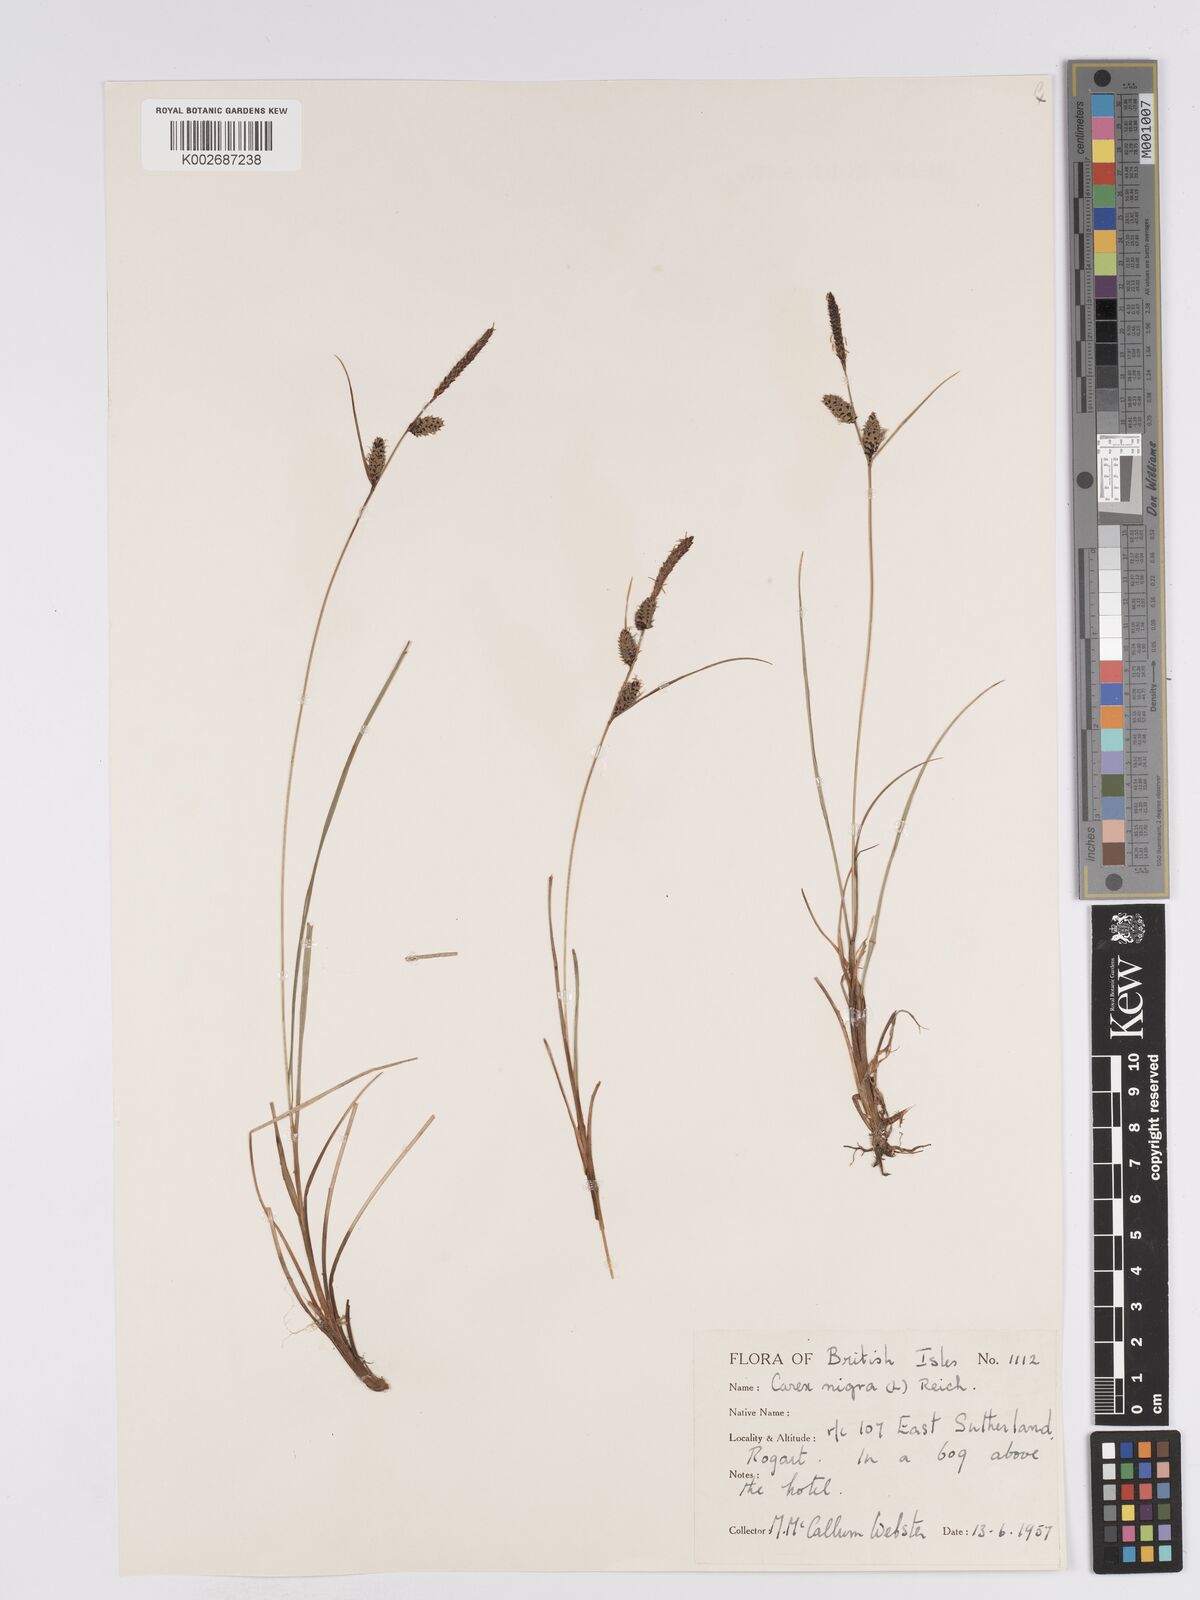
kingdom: Plantae
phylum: Tracheophyta
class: Liliopsida
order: Poales
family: Cyperaceae
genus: Carex
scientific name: Carex nigra
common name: Common sedge
